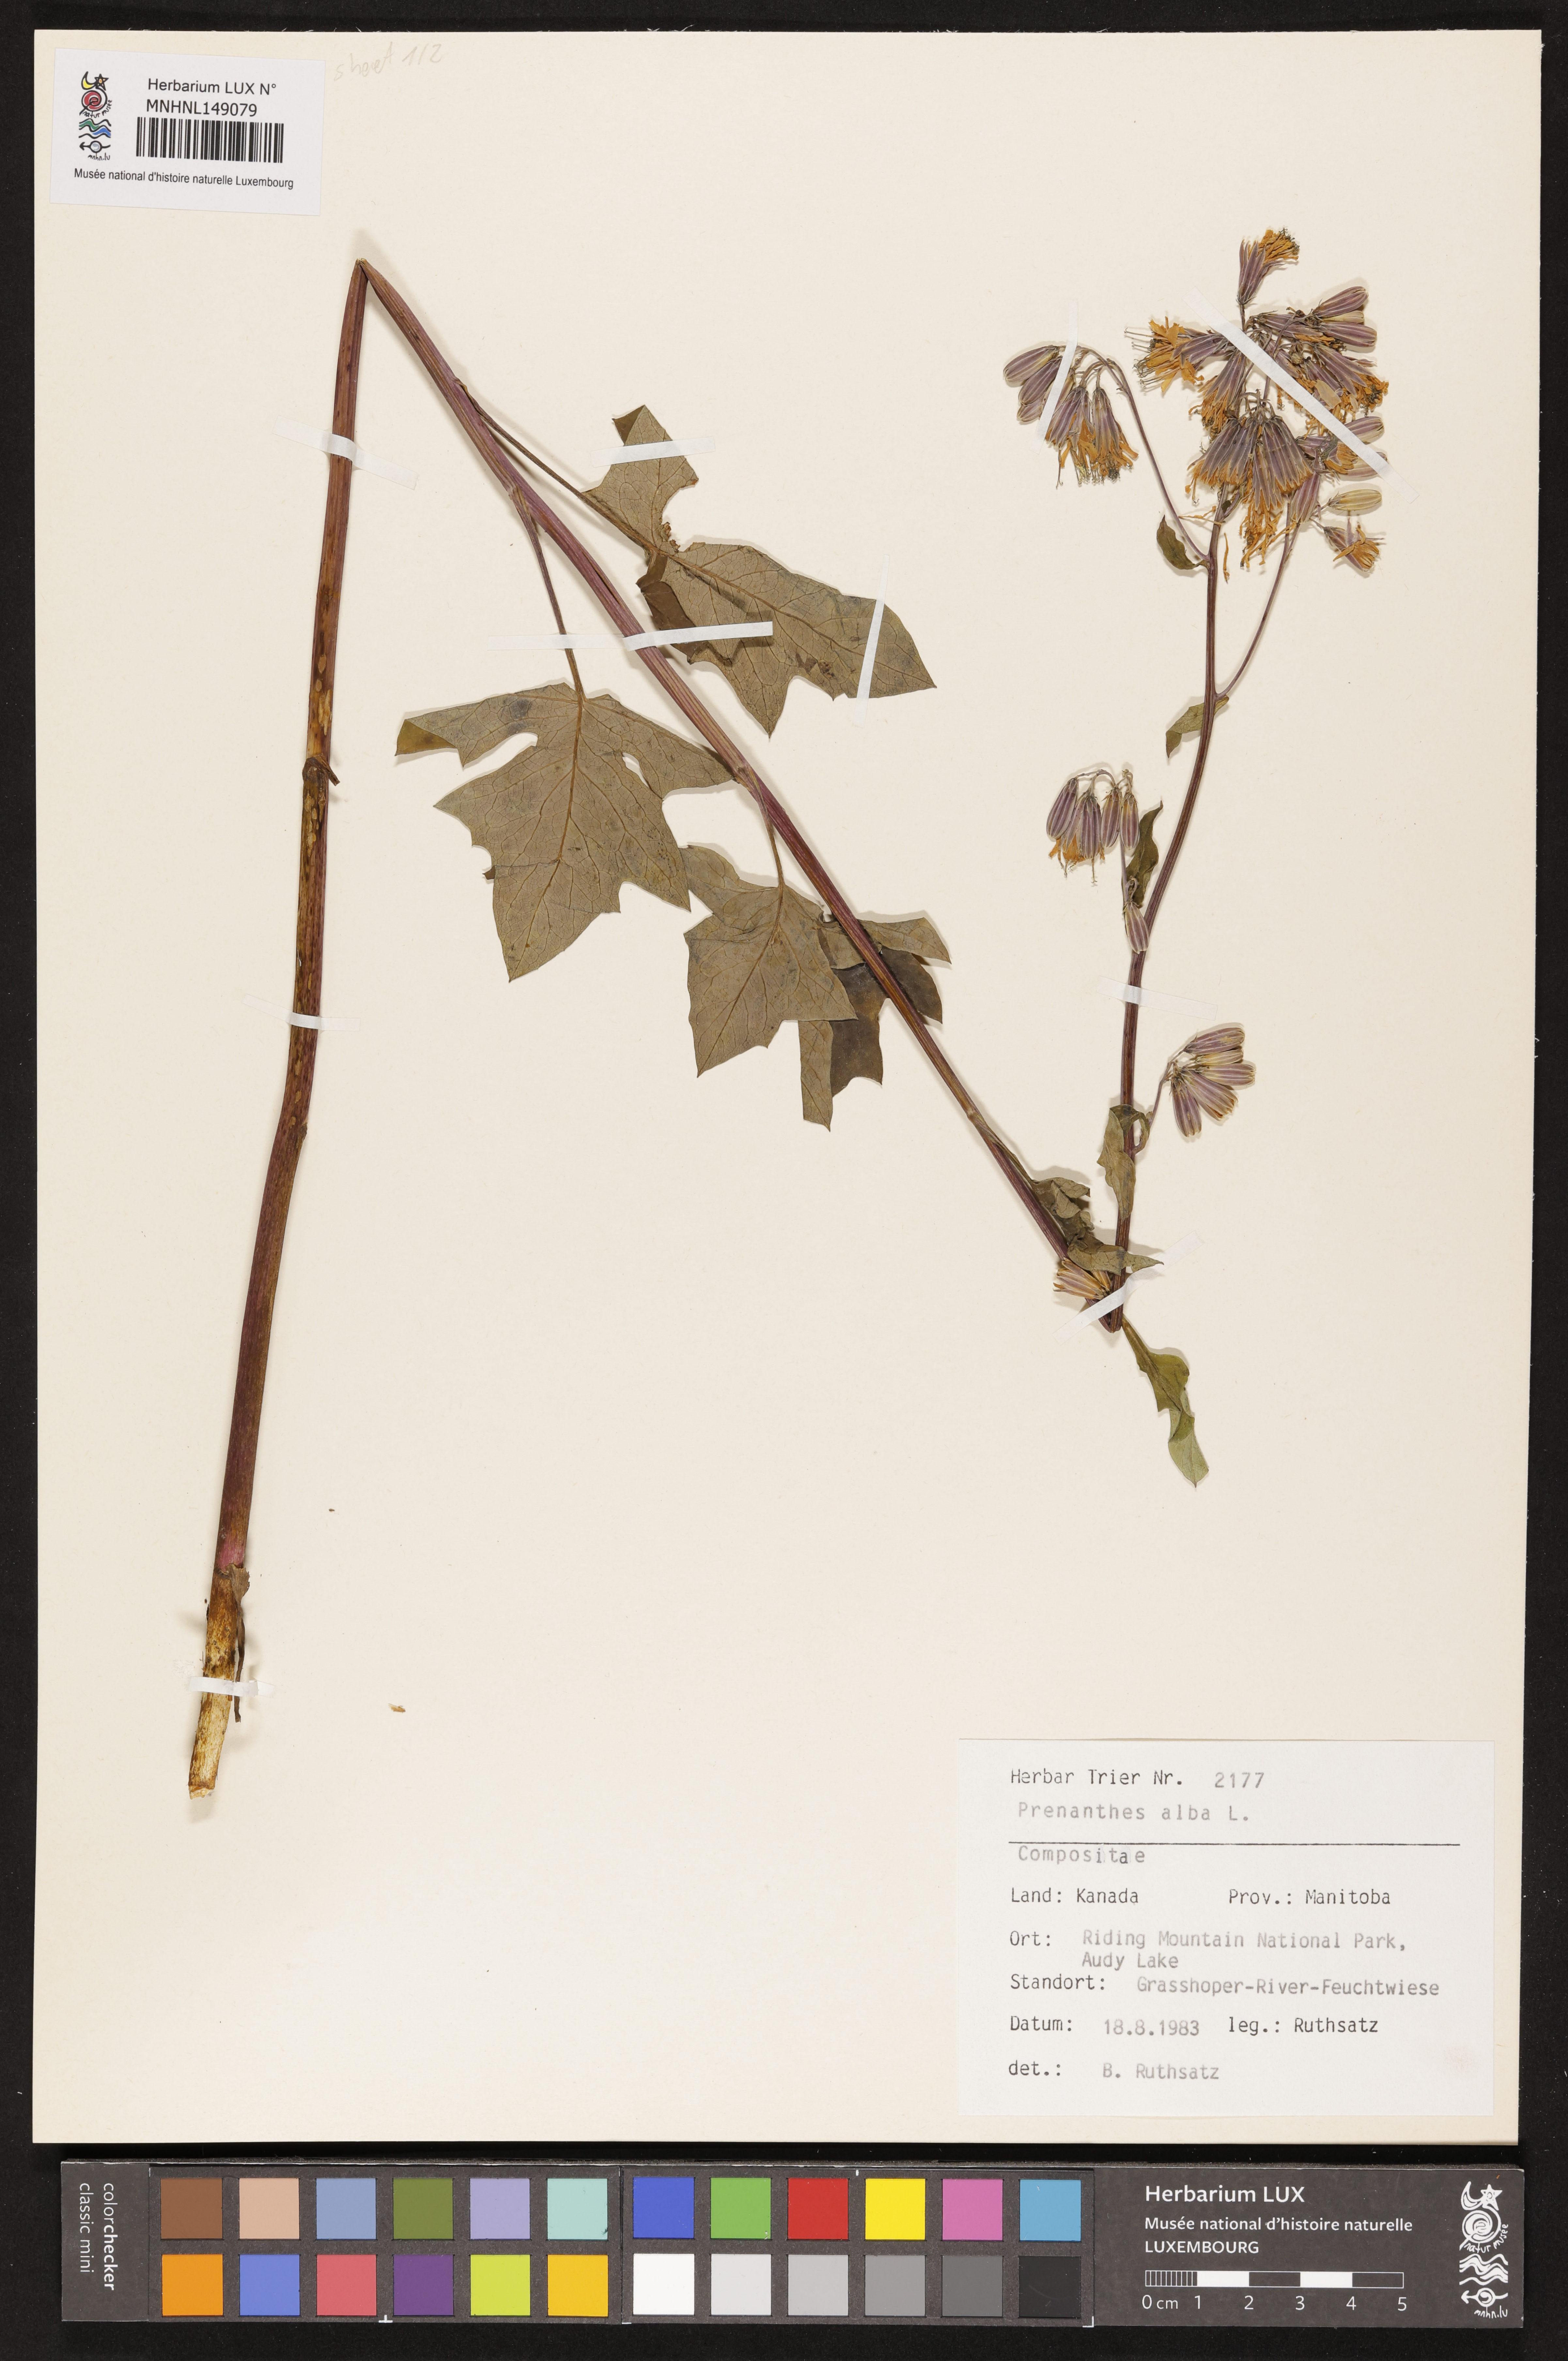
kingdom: Plantae
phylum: Tracheophyta
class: Magnoliopsida
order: Asterales
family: Asteraceae
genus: Nabalus
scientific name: Nabalus albus
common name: White rattlesnakeroot
